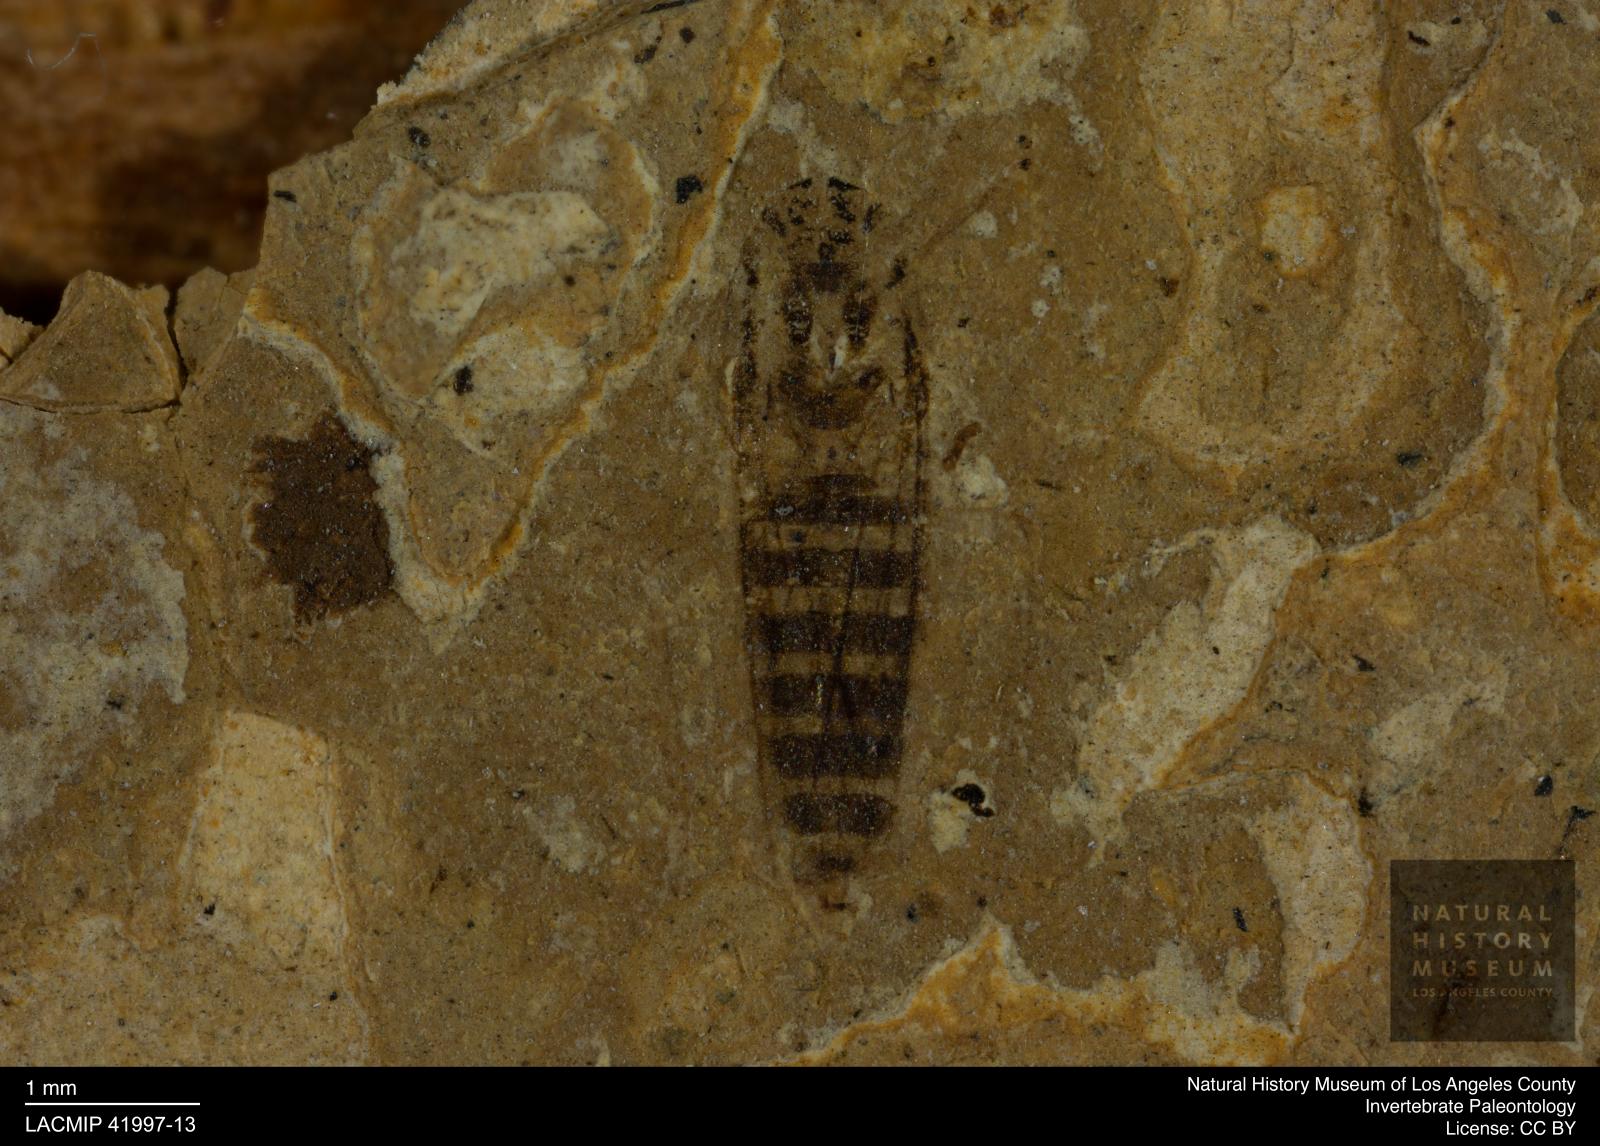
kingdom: Animalia
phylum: Arthropoda
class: Insecta
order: Hemiptera
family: Notonectidae
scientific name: Notonectidae
